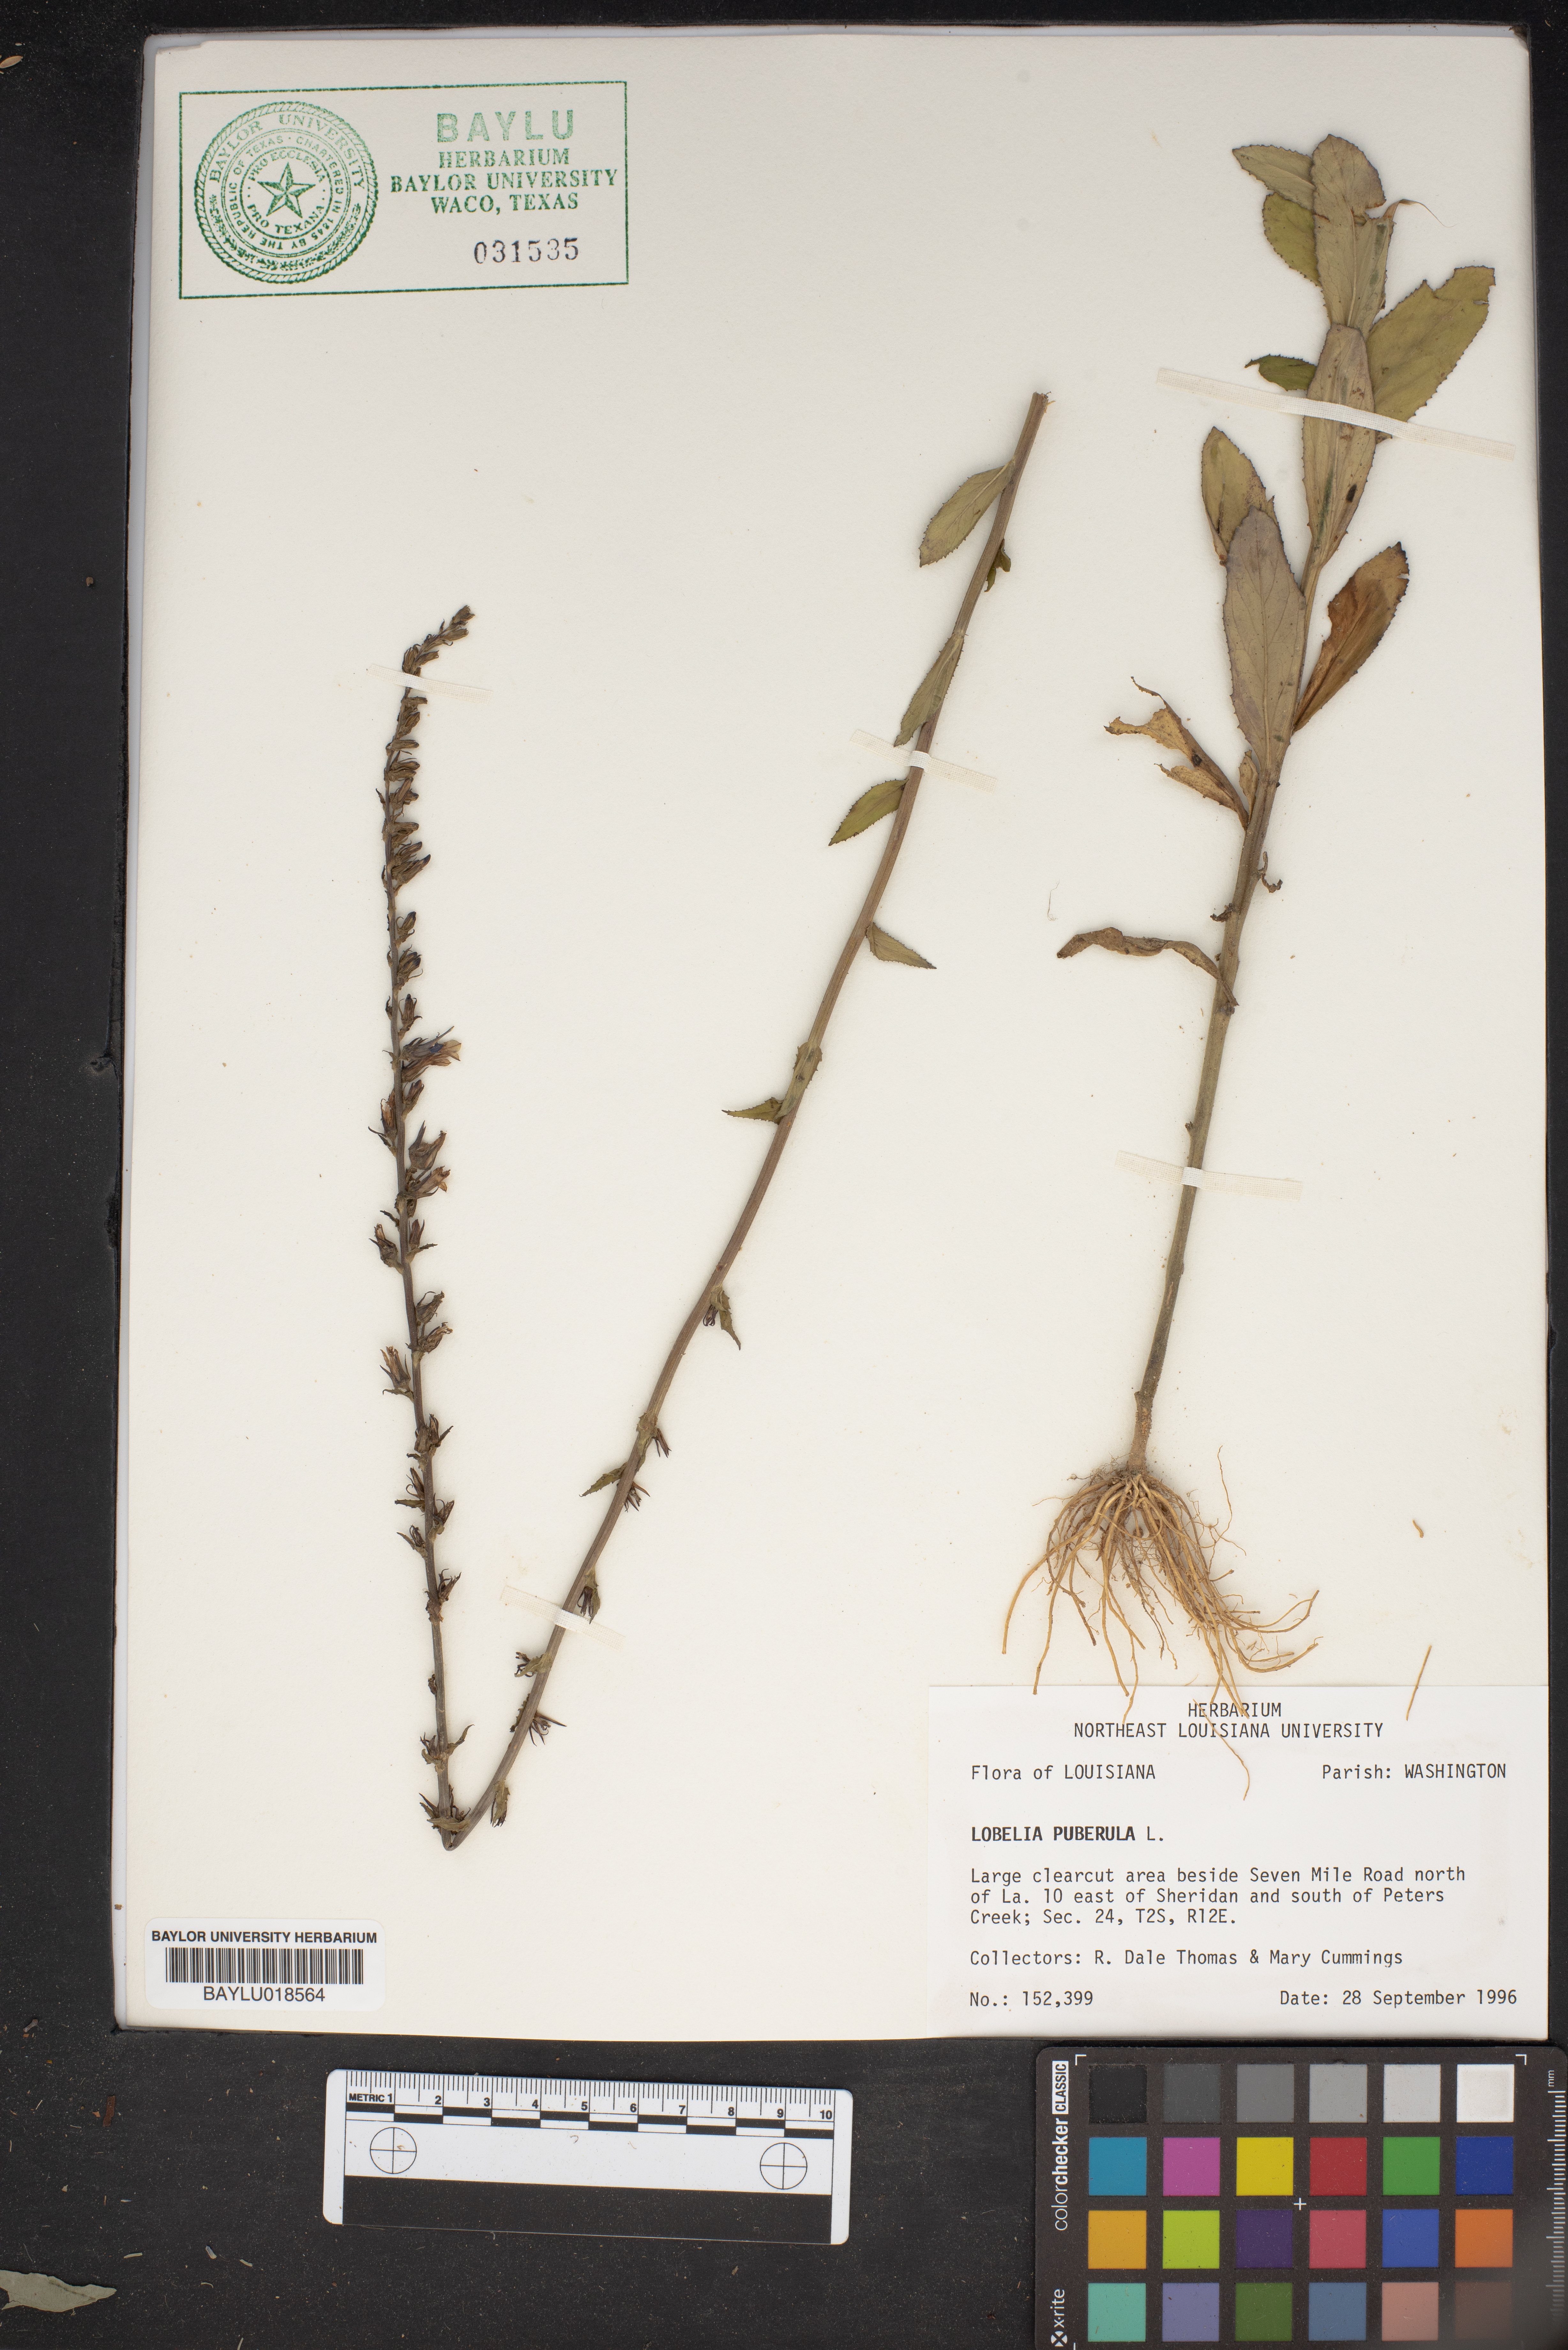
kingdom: Plantae
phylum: Tracheophyta
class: Magnoliopsida
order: Asterales
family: Campanulaceae
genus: Lobelia
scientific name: Lobelia puberula
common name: Purple dewdrop
